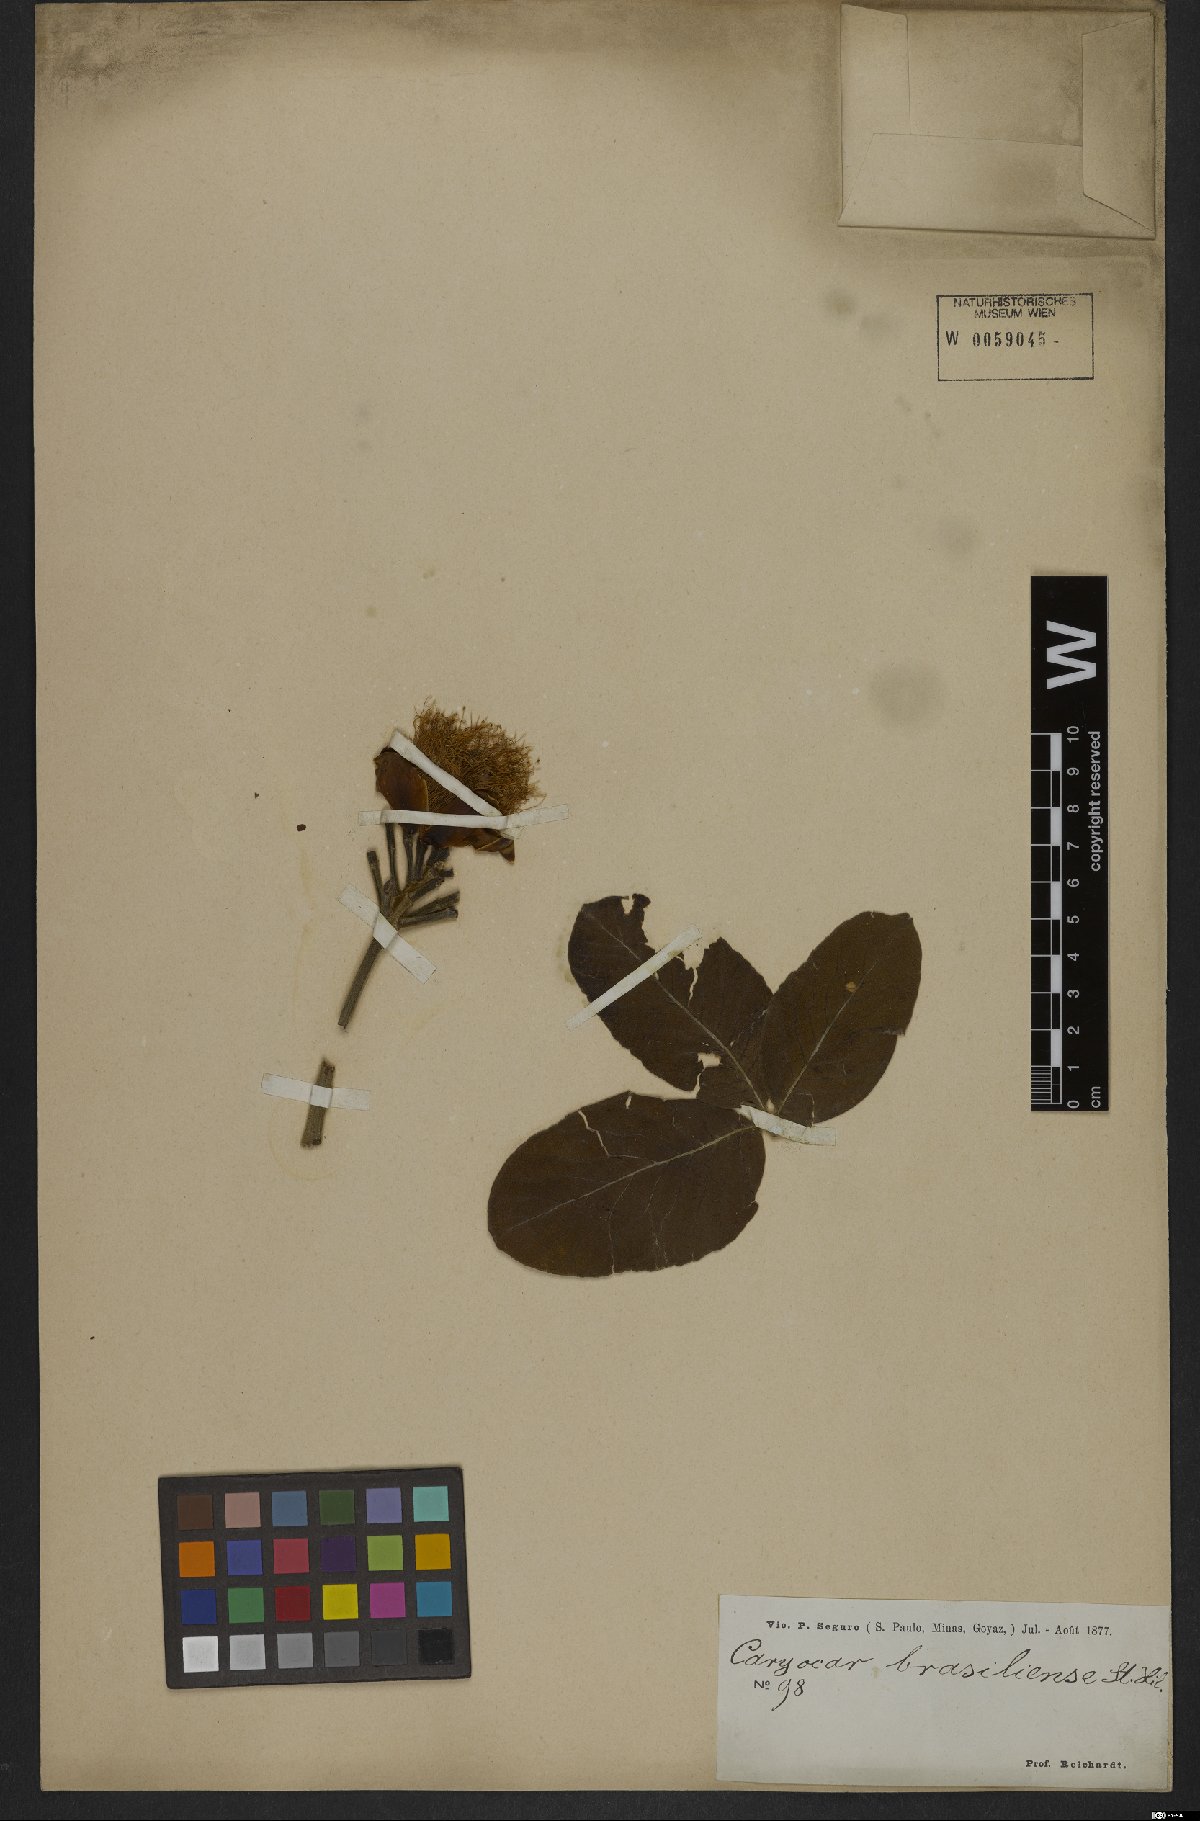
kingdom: Plantae
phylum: Tracheophyta
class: Magnoliopsida
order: Malpighiales
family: Caryocaraceae
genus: Caryocar
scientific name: Caryocar brasiliense
